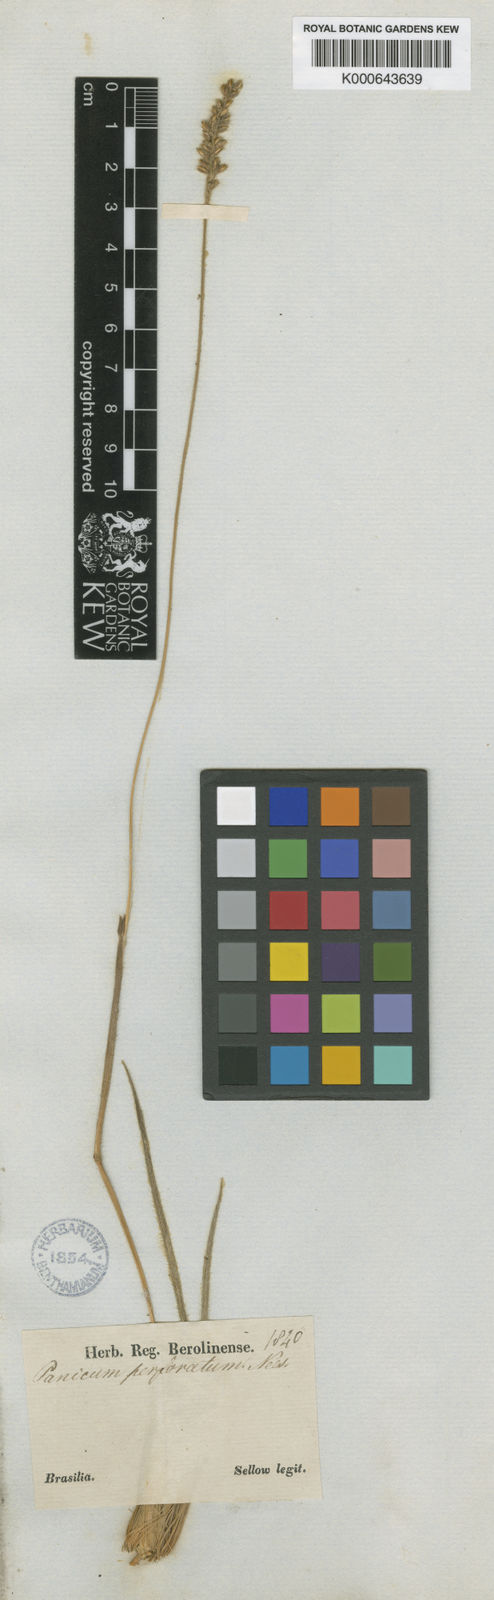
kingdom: Plantae
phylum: Tracheophyta
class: Liliopsida
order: Poales
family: Poaceae
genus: Anthaenantiopsis
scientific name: Anthaenantiopsis perforata
